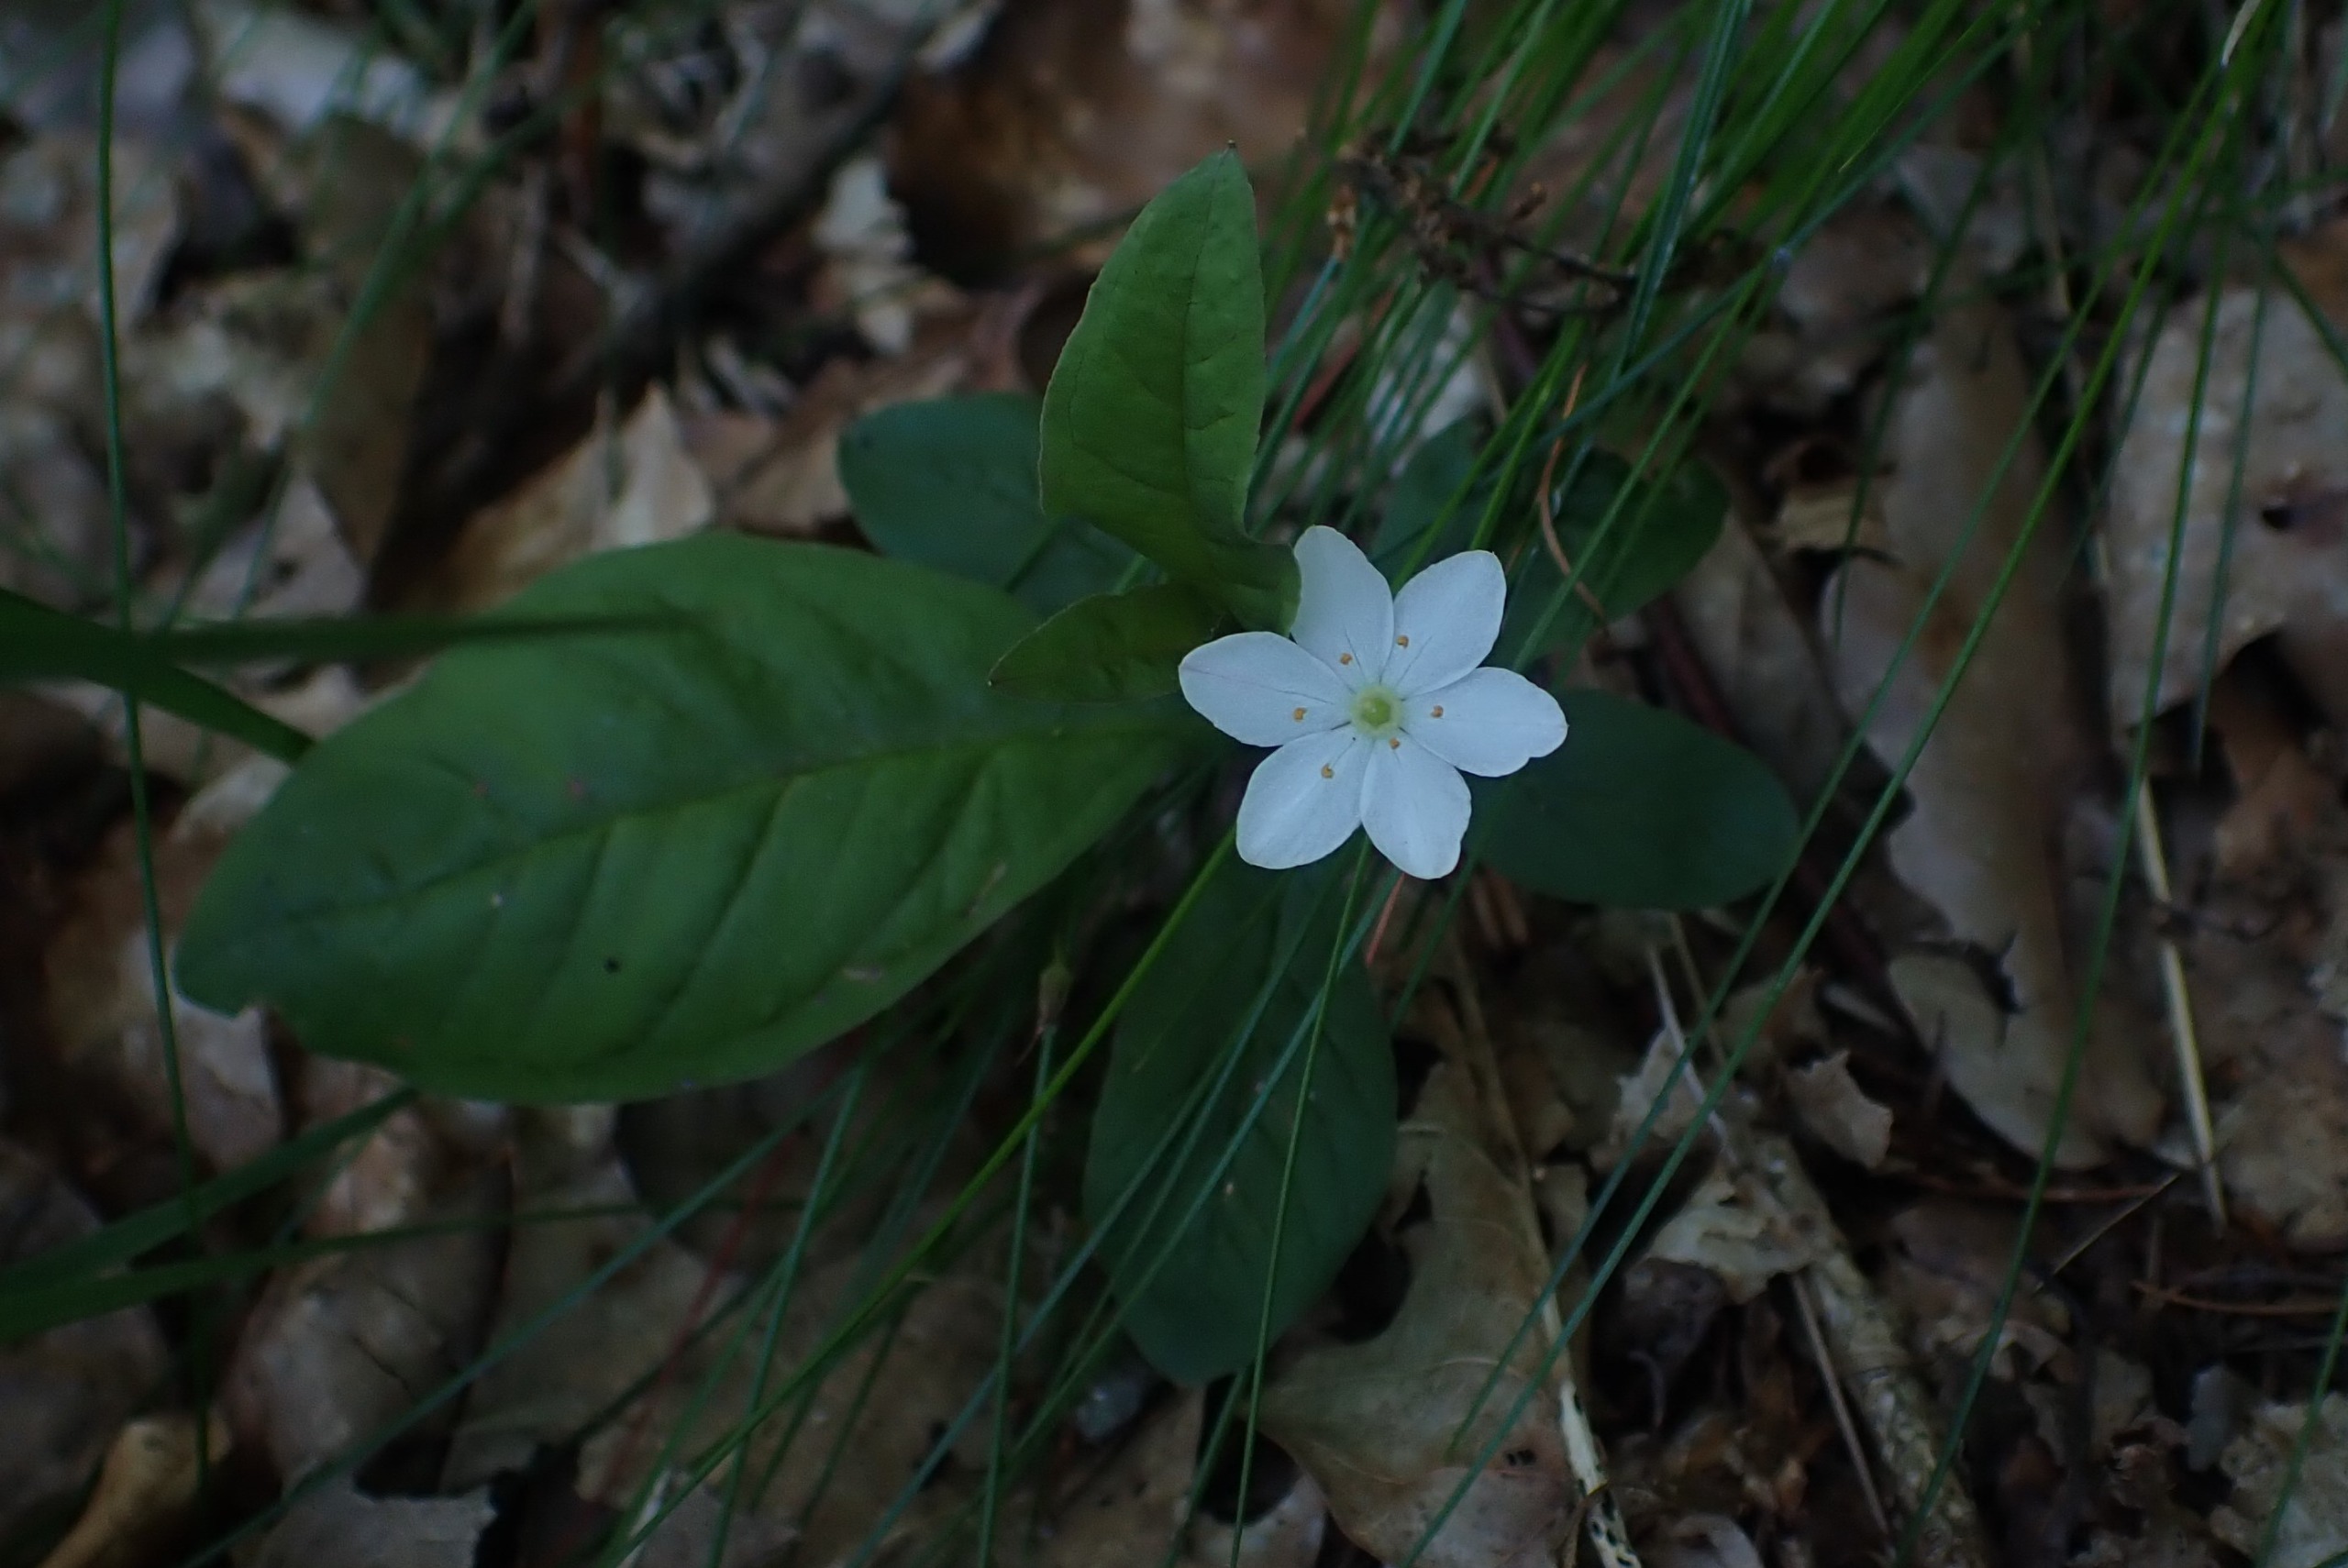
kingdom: Plantae
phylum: Tracheophyta
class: Magnoliopsida
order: Ericales
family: Primulaceae
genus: Lysimachia
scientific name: Lysimachia europaea
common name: Skovstjerne
